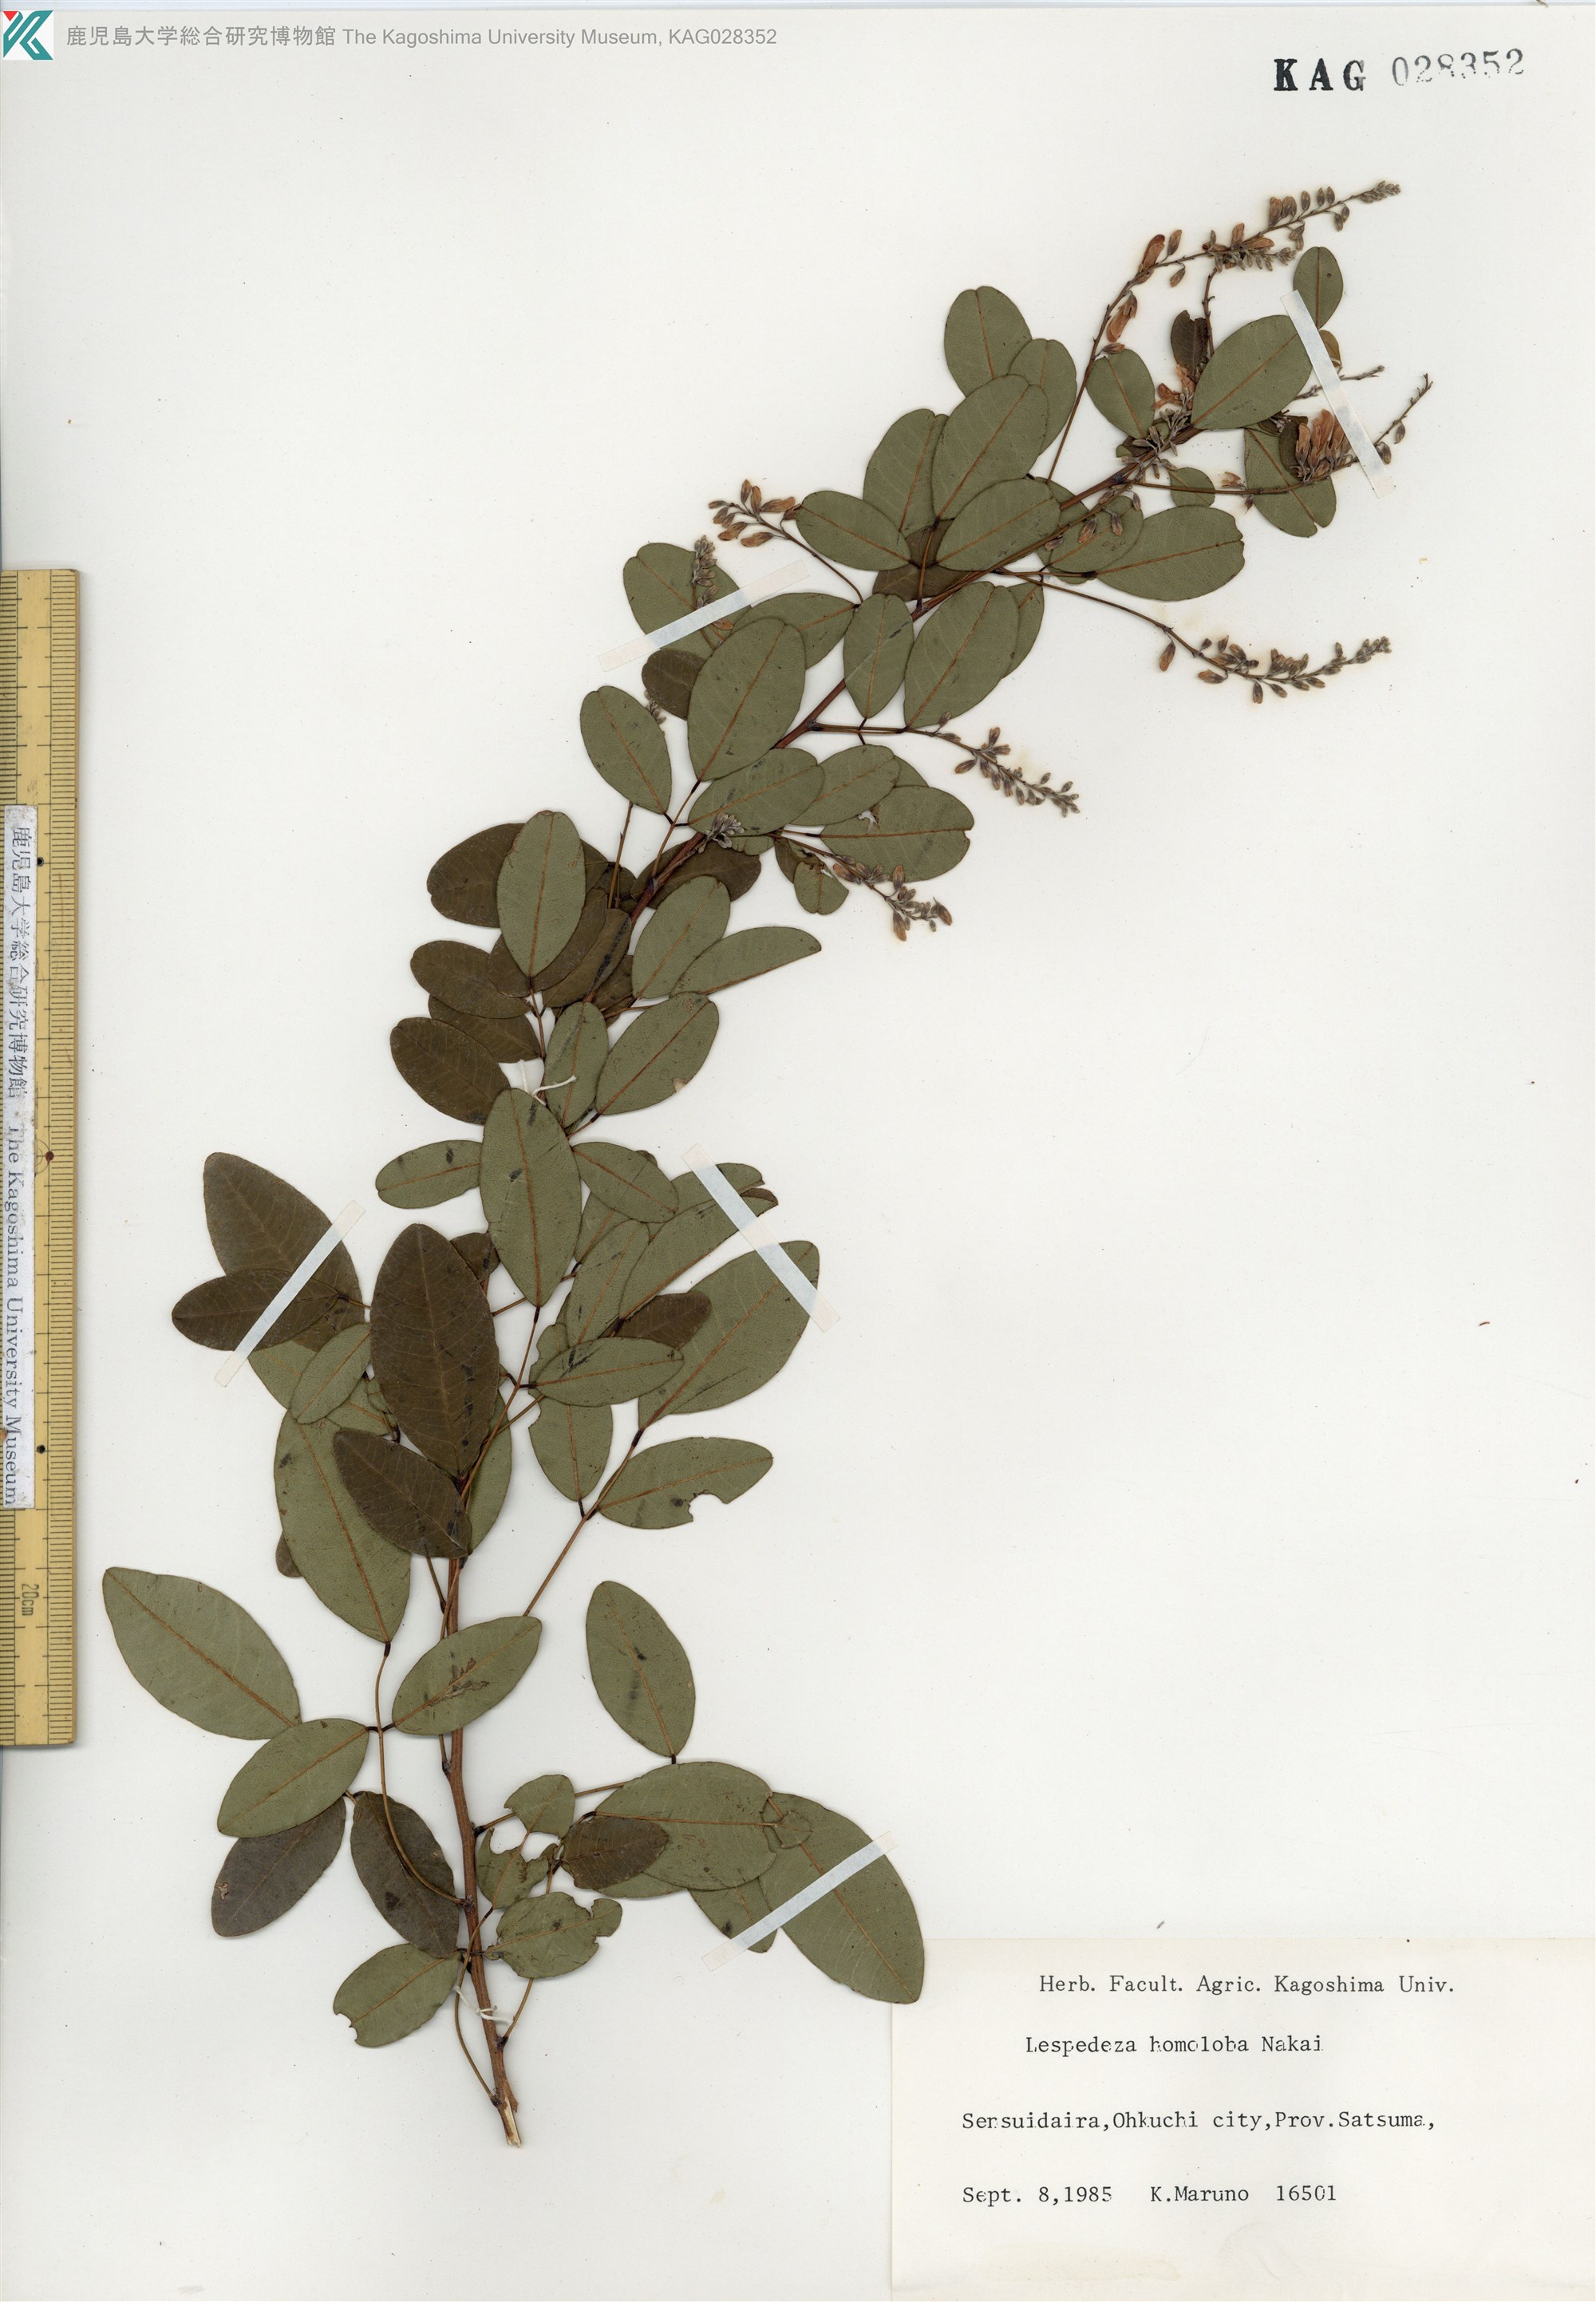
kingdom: Plantae
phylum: Tracheophyta
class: Magnoliopsida
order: Fabales
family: Fabaceae
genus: Lespedeza
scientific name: Lespedeza homoloba
